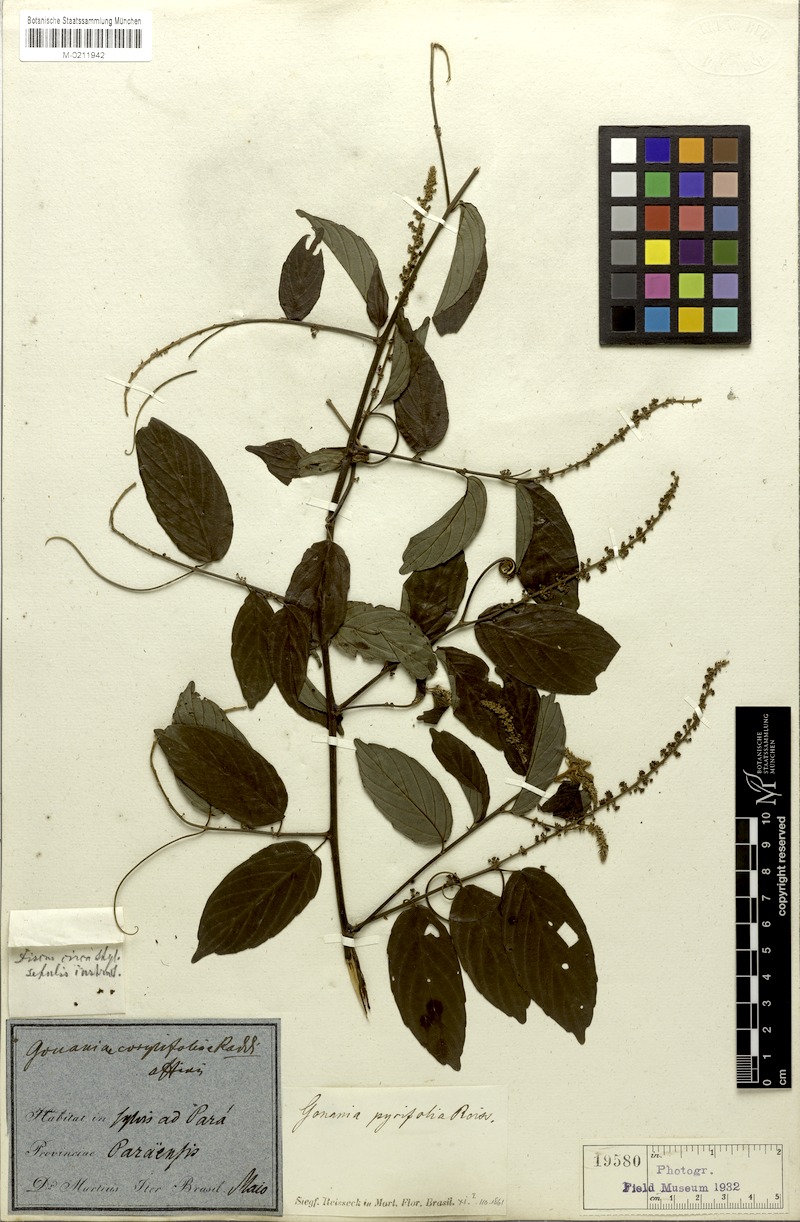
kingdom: Plantae
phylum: Tracheophyta
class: Magnoliopsida
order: Rosales
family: Rhamnaceae
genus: Gouania
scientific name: Gouania pyrifolia
